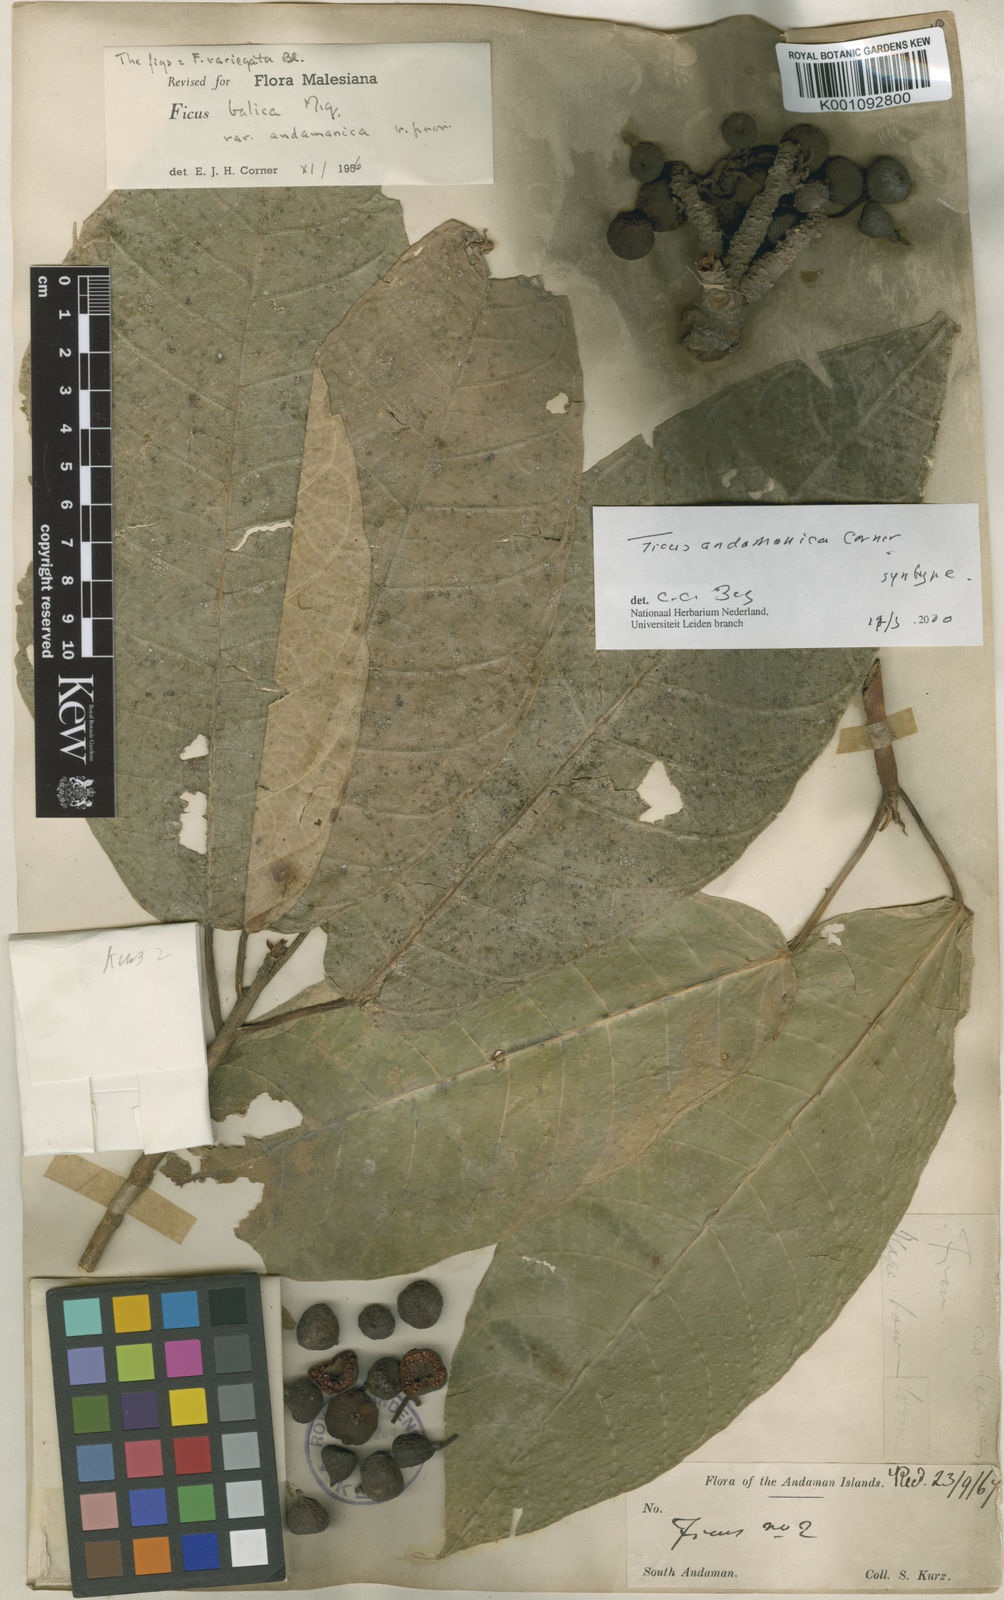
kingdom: Plantae
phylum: Tracheophyta
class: Magnoliopsida
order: Rosales
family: Moraceae
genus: Ficus
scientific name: Ficus andamanica
